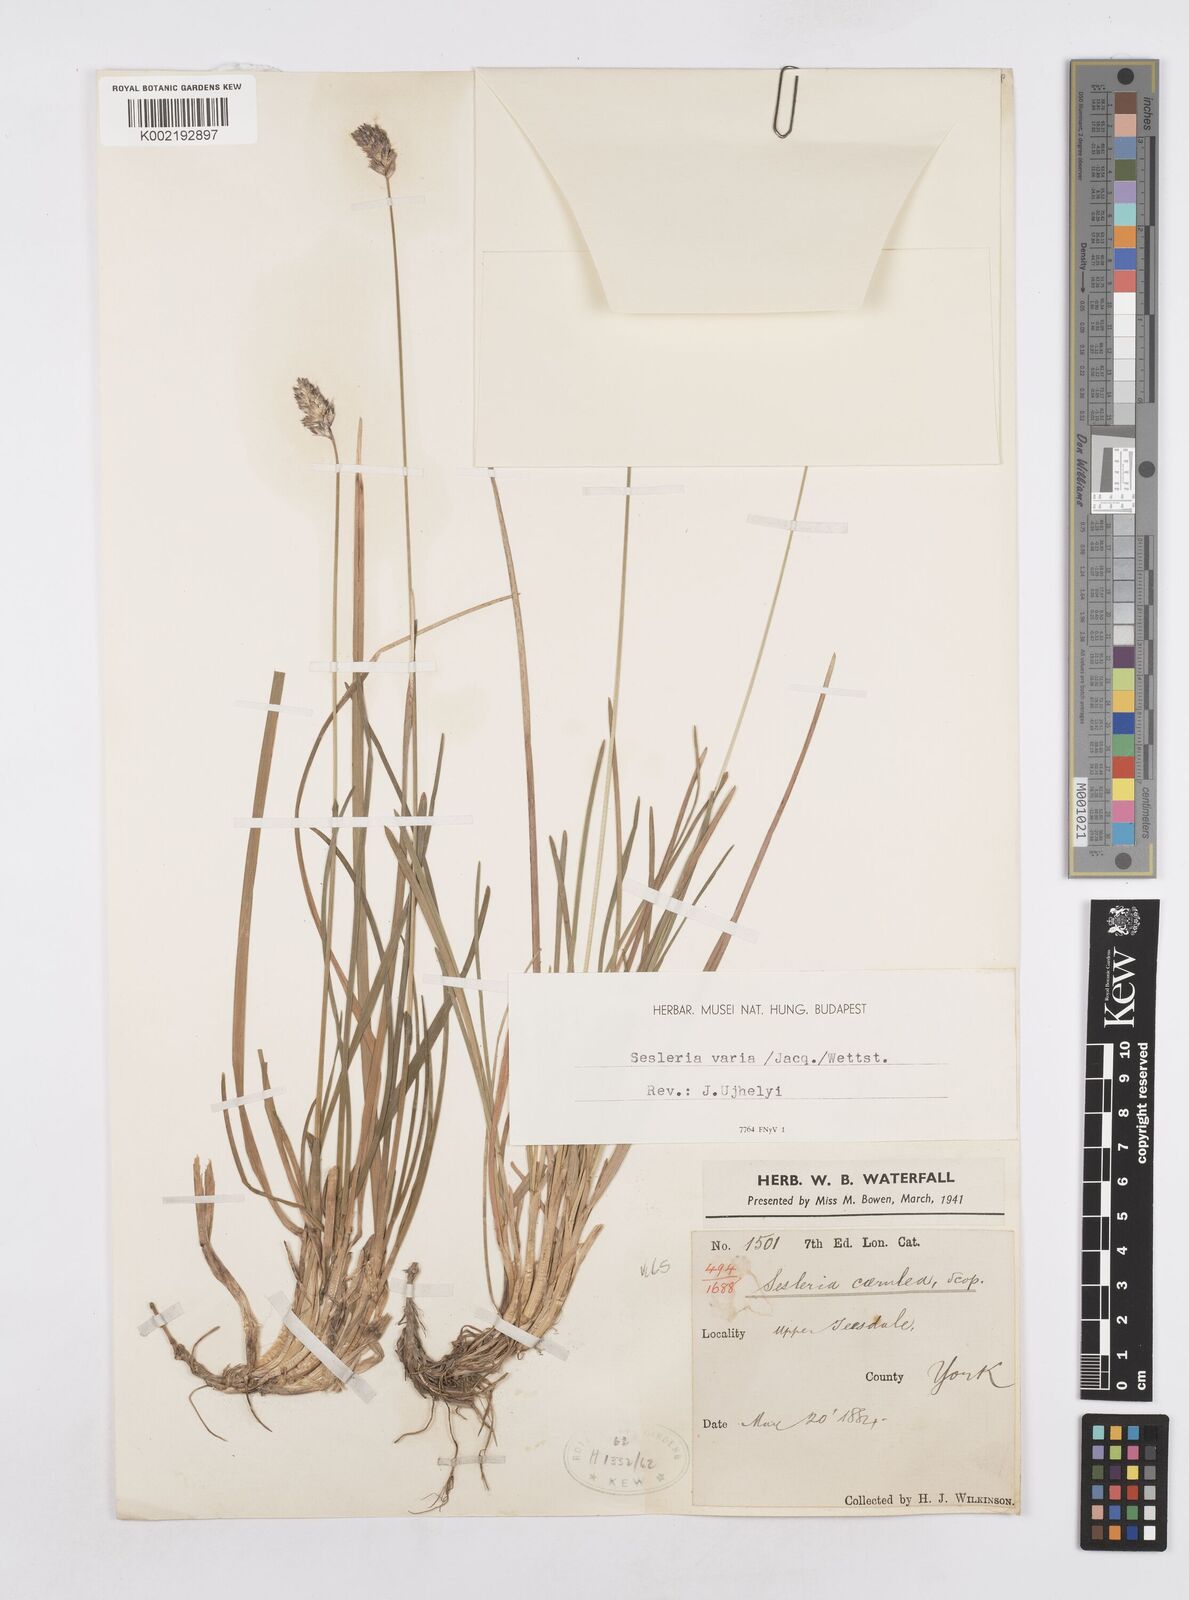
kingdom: Plantae
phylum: Tracheophyta
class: Liliopsida
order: Poales
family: Poaceae
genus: Sesleria
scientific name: Sesleria caerulea
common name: Blue moor-grass
